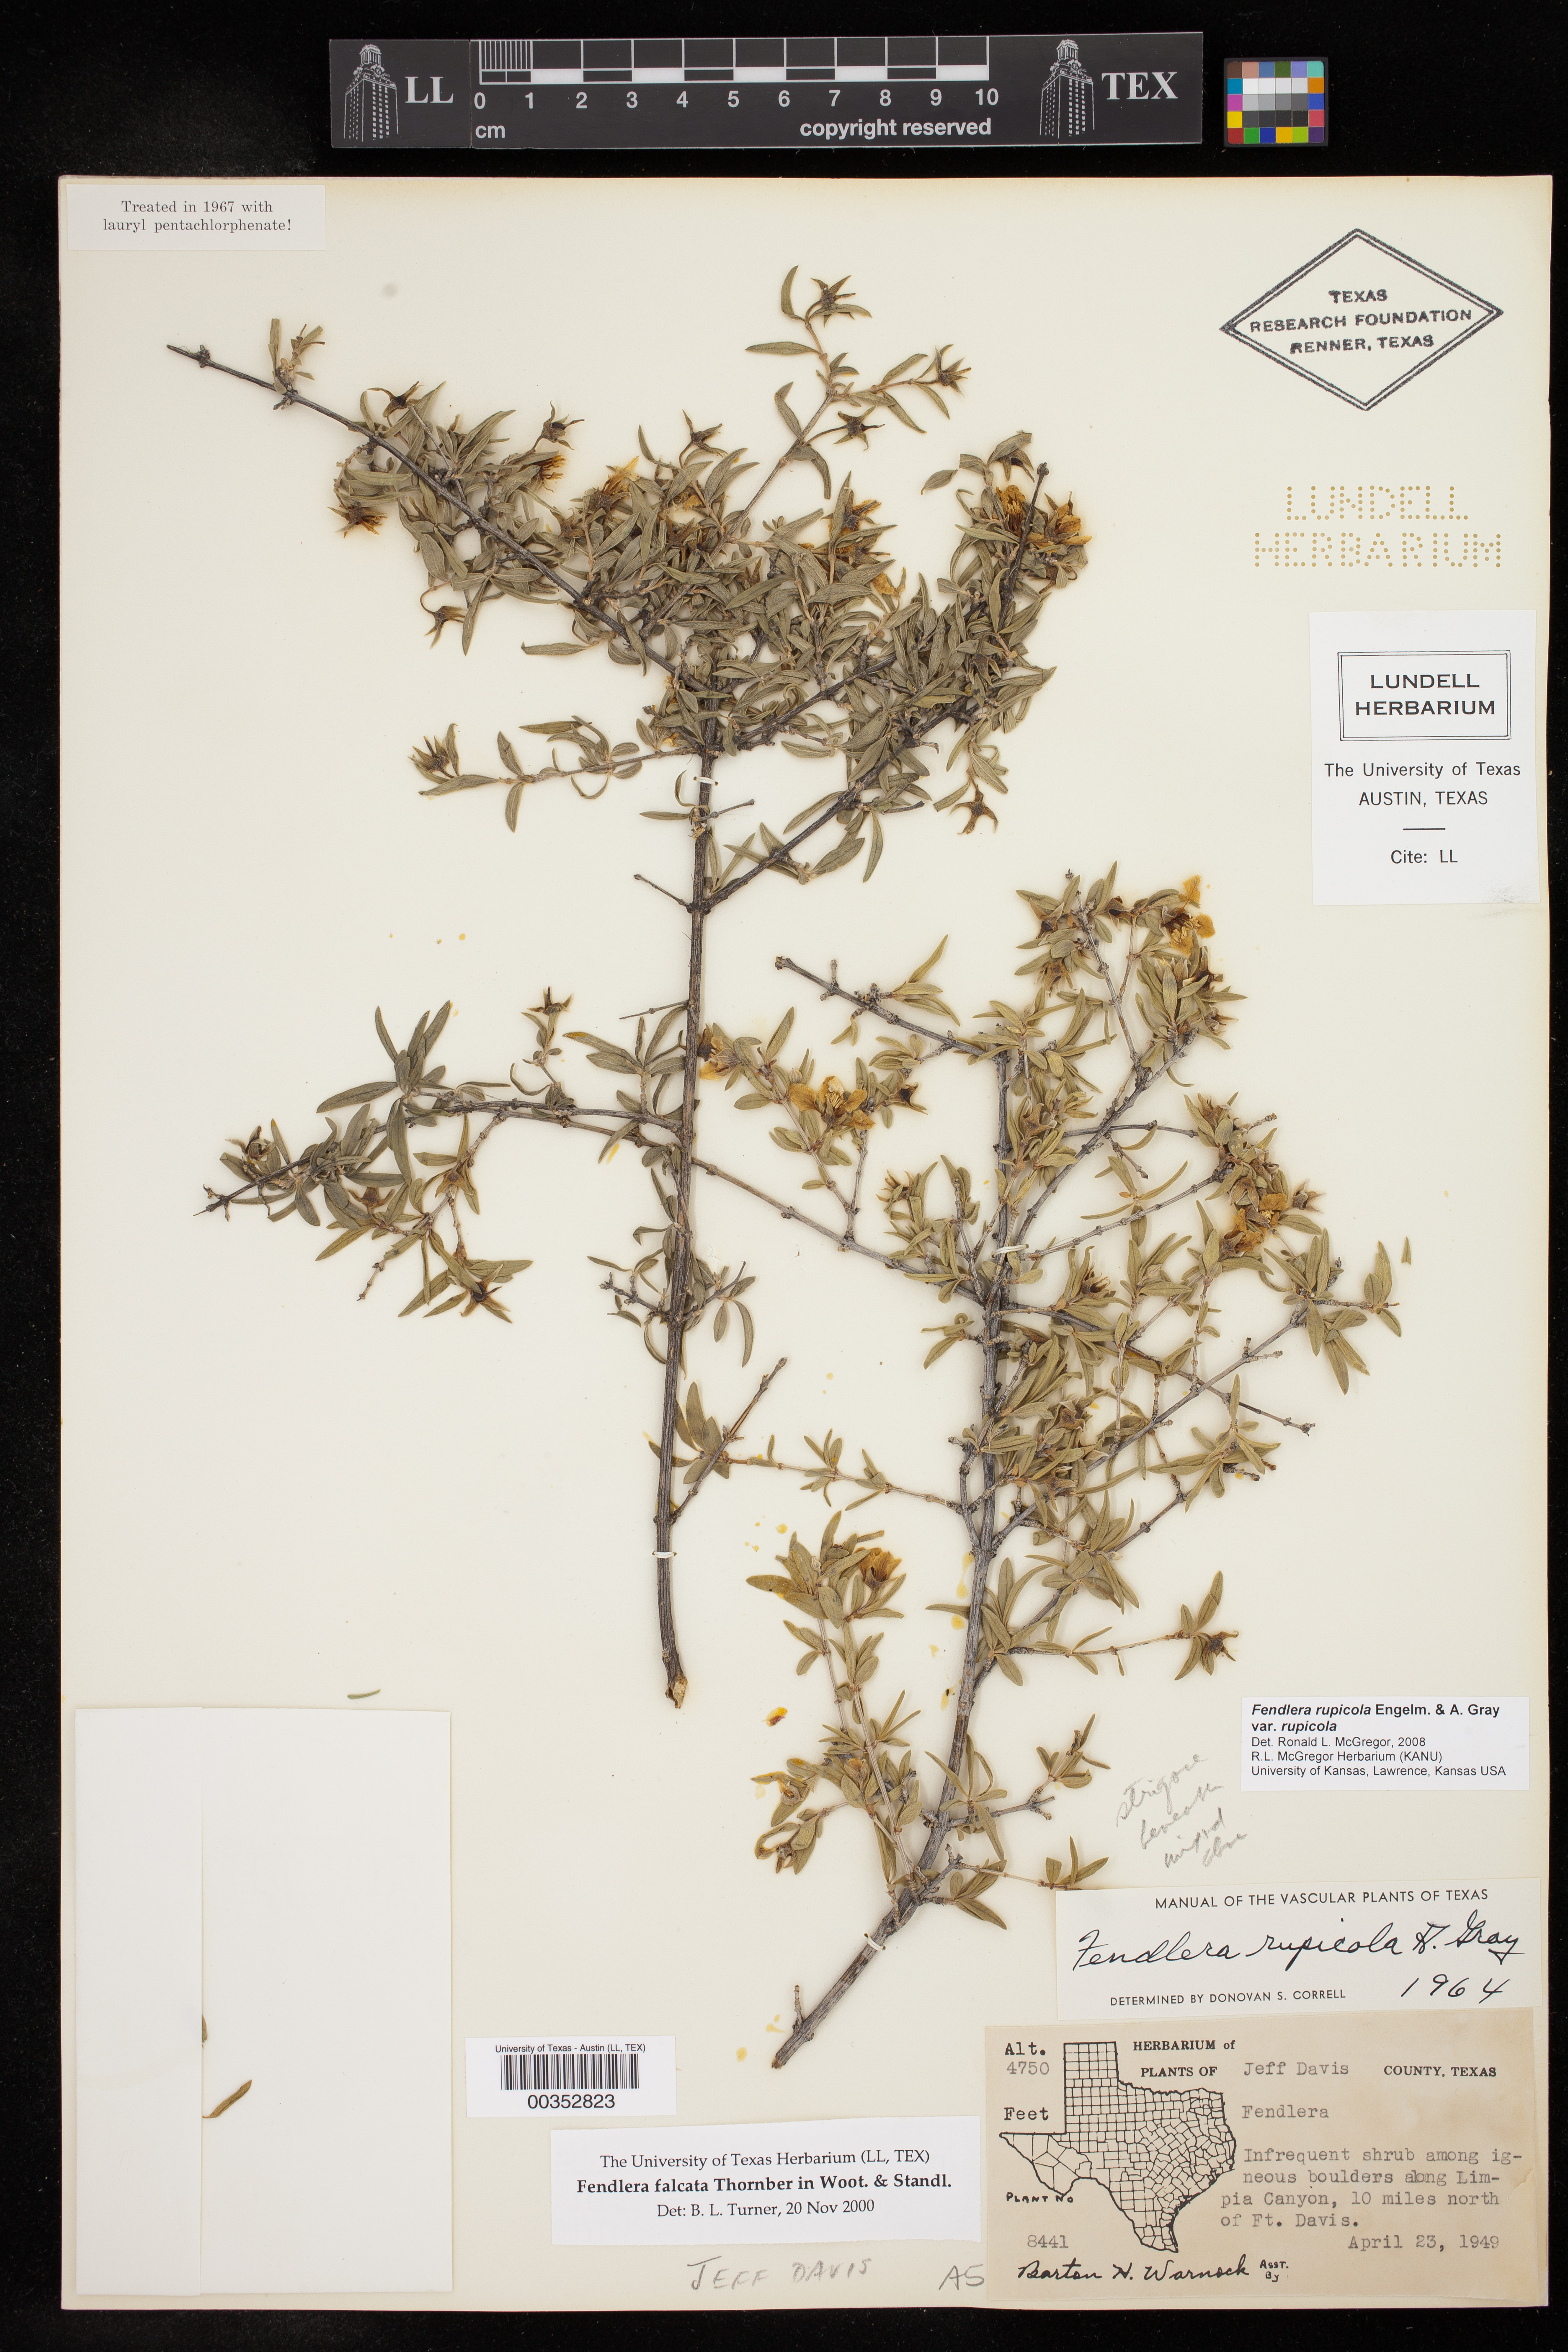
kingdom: Plantae
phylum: Tracheophyta
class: Magnoliopsida
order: Cornales
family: Hydrangeaceae
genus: Fendlera
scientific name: Fendlera rupicola
